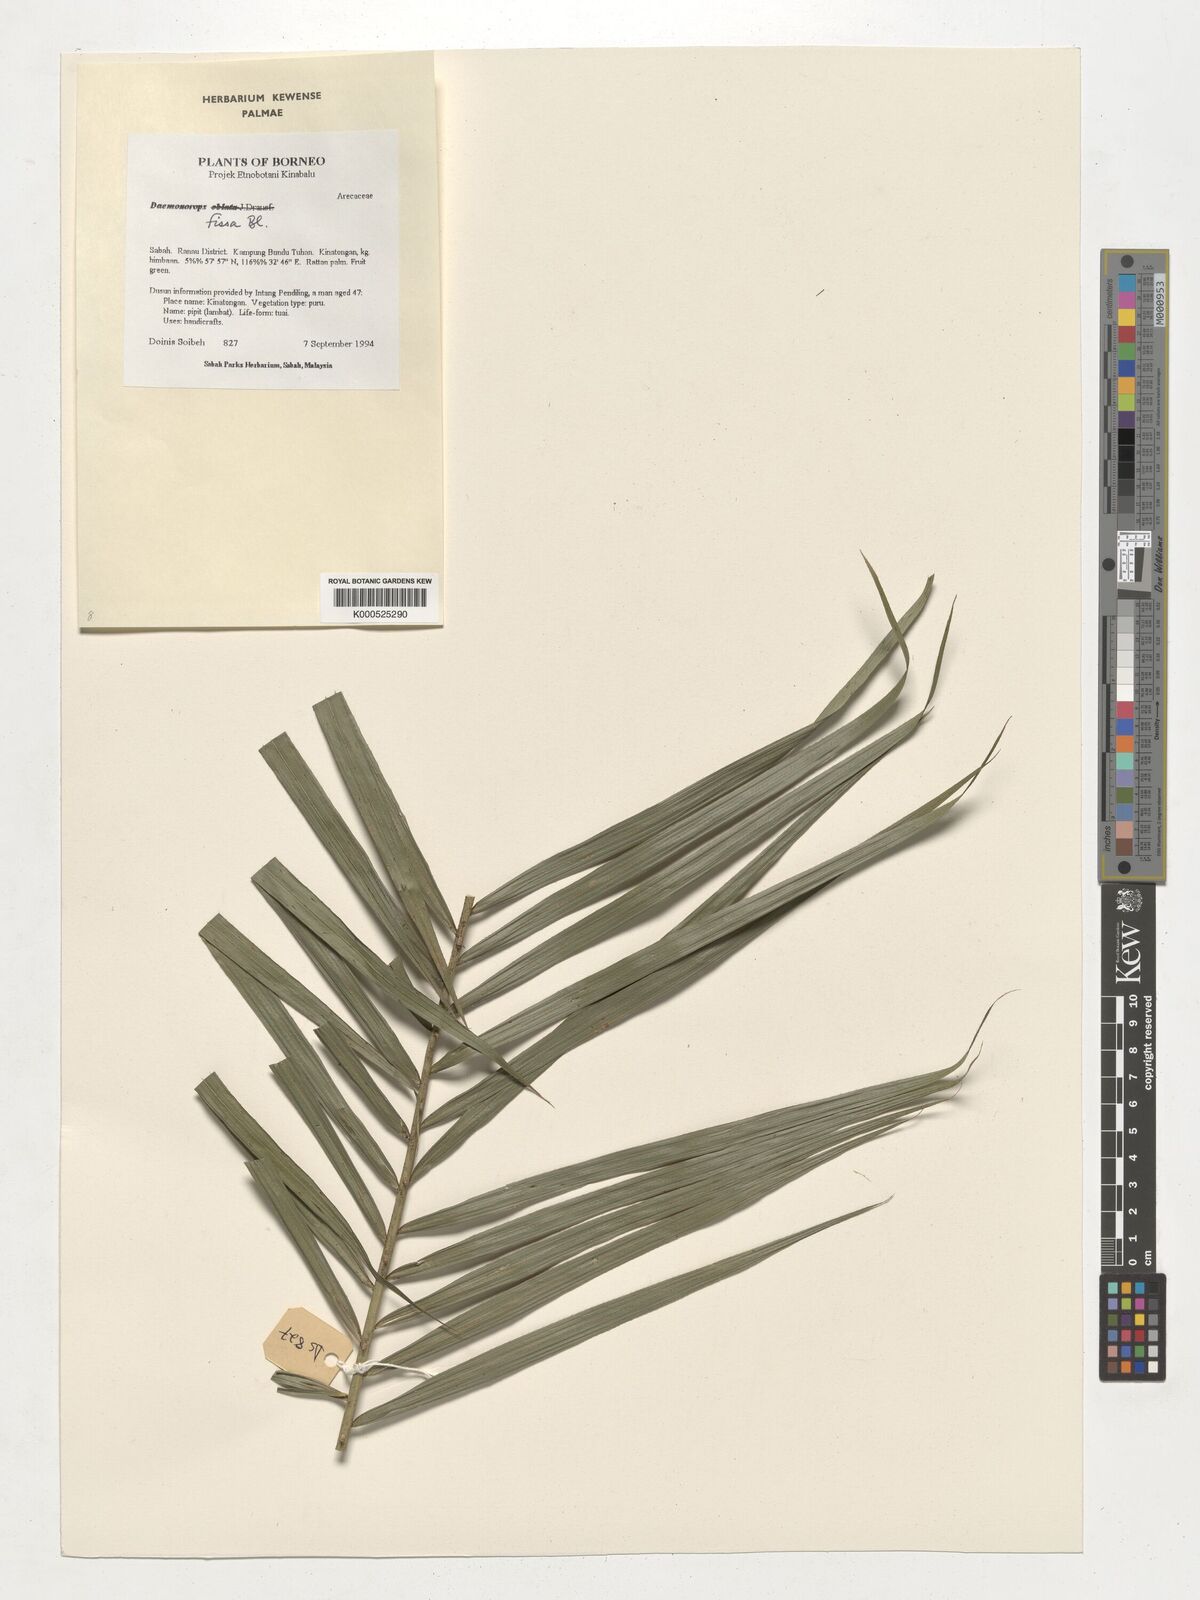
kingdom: Plantae
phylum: Tracheophyta
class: Liliopsida
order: Arecales
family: Arecaceae
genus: Calamus
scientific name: Calamus melanochaetes
